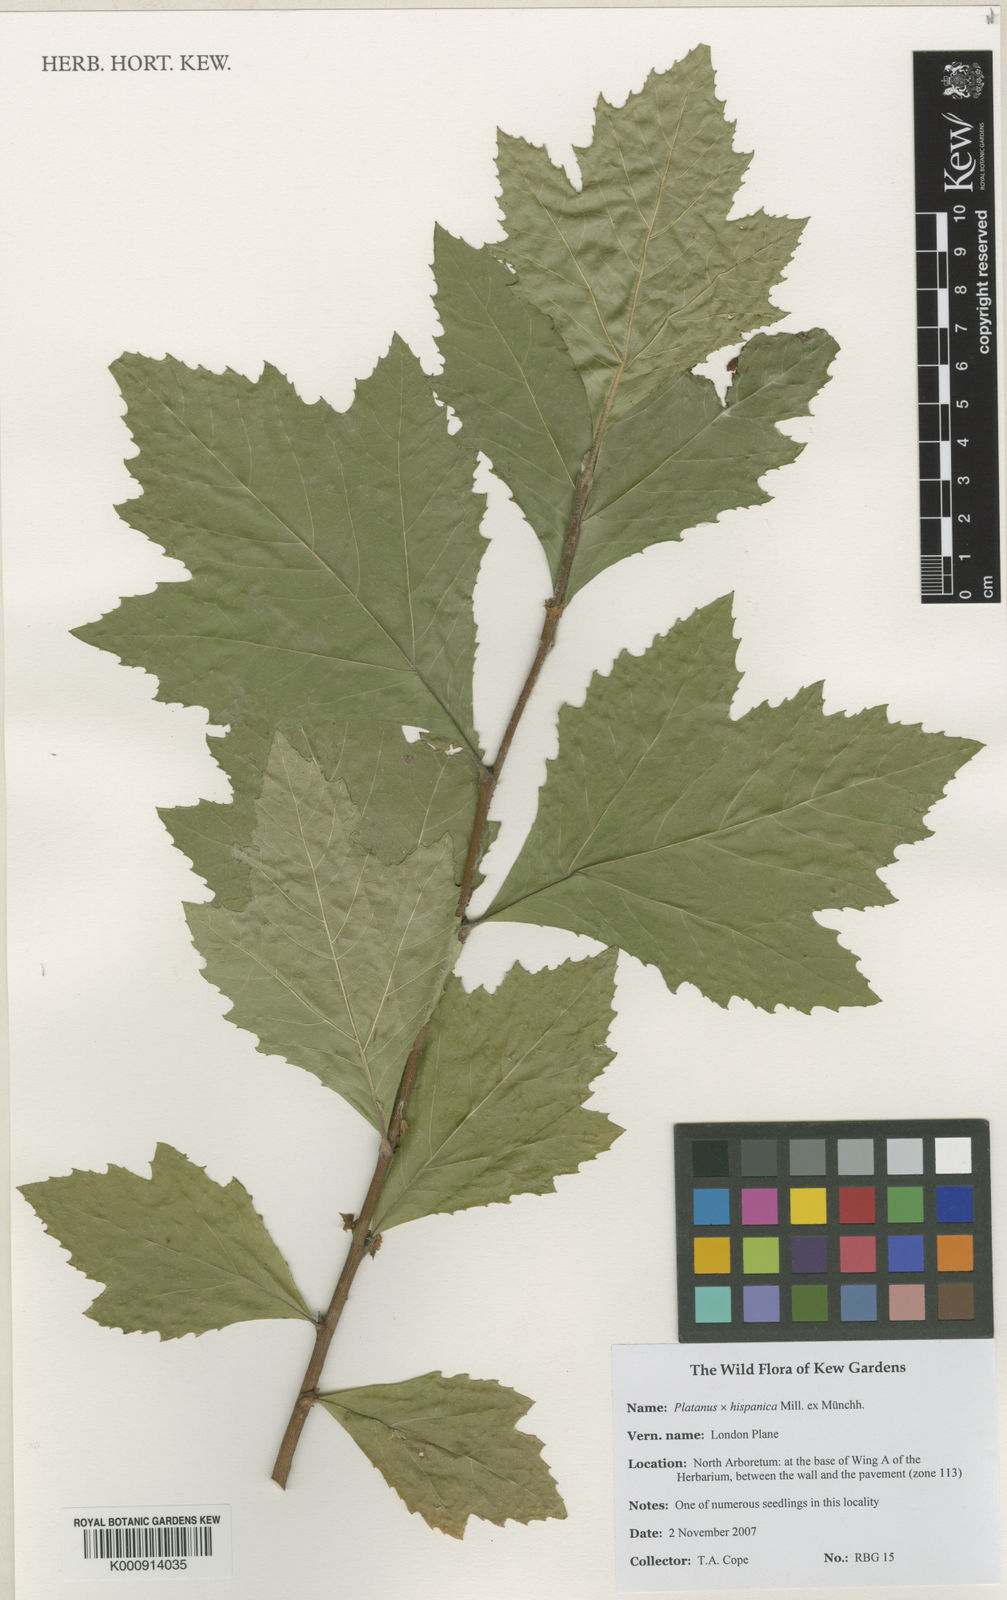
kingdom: Plantae
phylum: Tracheophyta
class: Magnoliopsida
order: Proteales
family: Platanaceae
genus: Platanus
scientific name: Platanus
